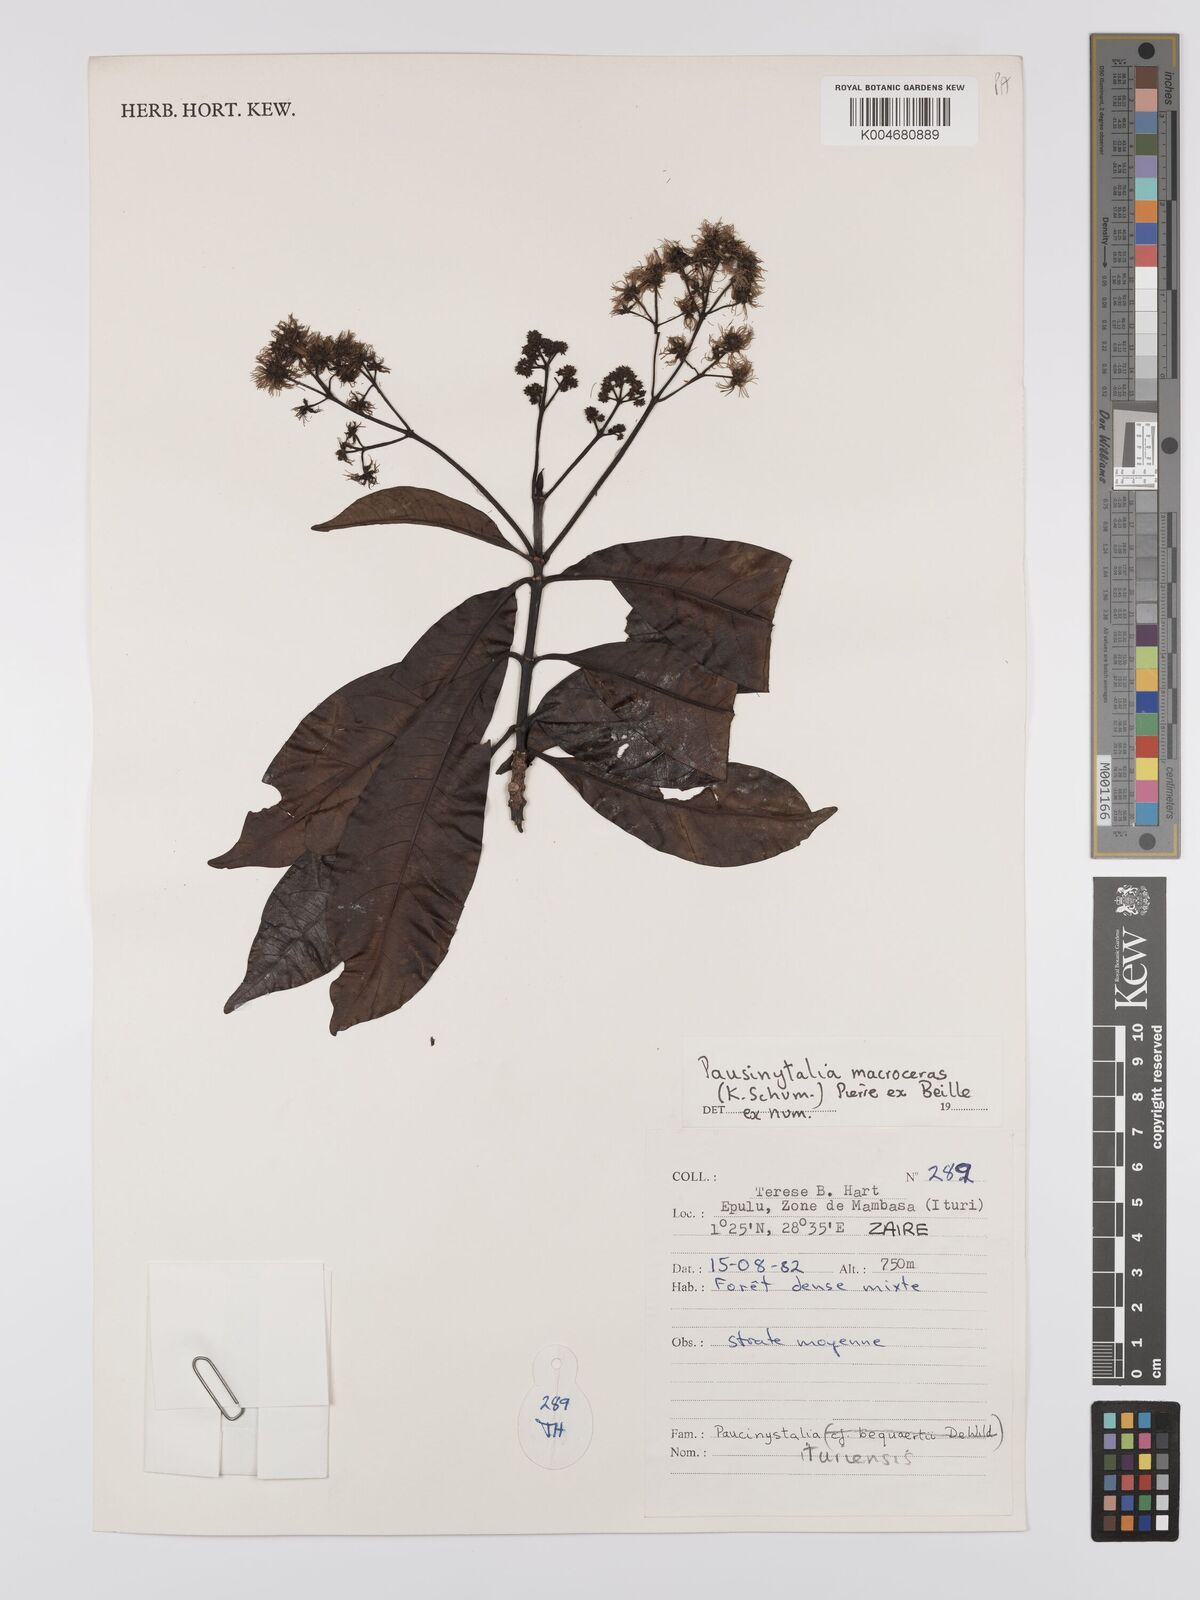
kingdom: Plantae
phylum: Tracheophyta
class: Magnoliopsida
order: Gentianales
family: Rubiaceae
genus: Corynanthe
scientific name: Corynanthe macroceras
